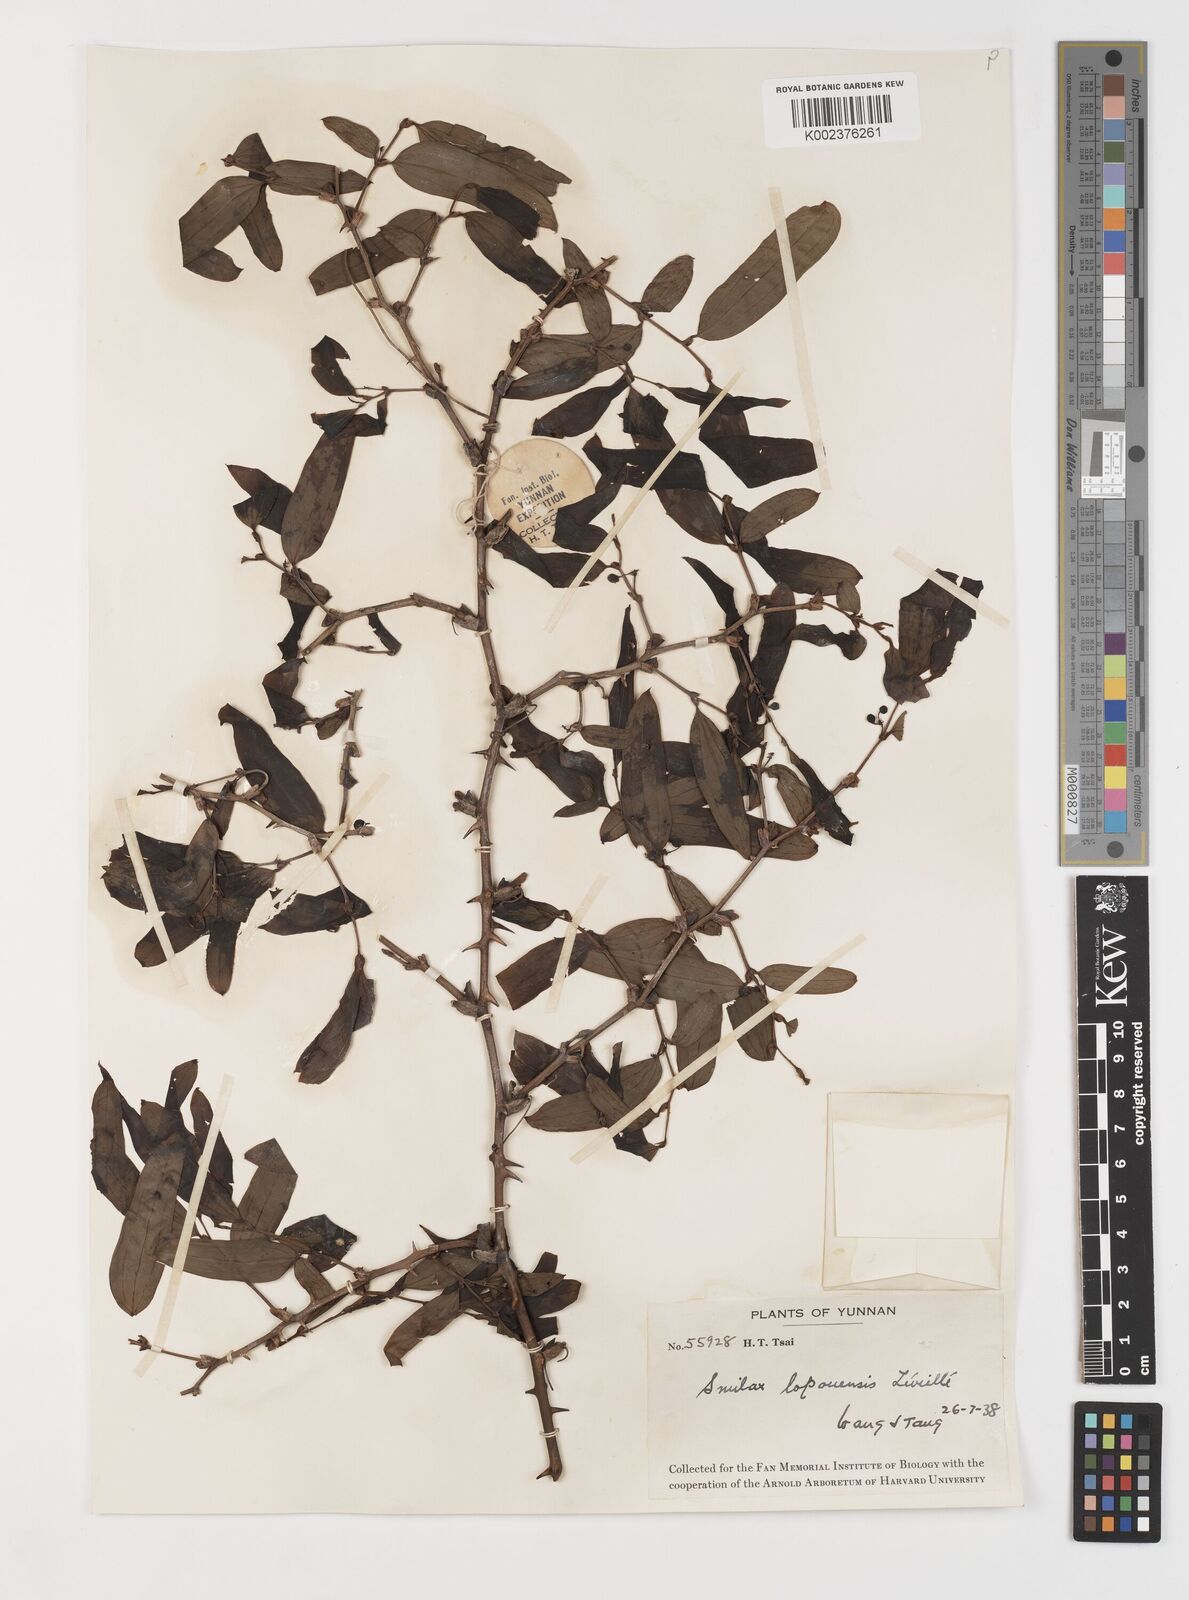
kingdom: Plantae
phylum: Tracheophyta
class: Liliopsida
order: Liliales
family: Smilacaceae
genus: Smilax
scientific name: Smilax megalantha
